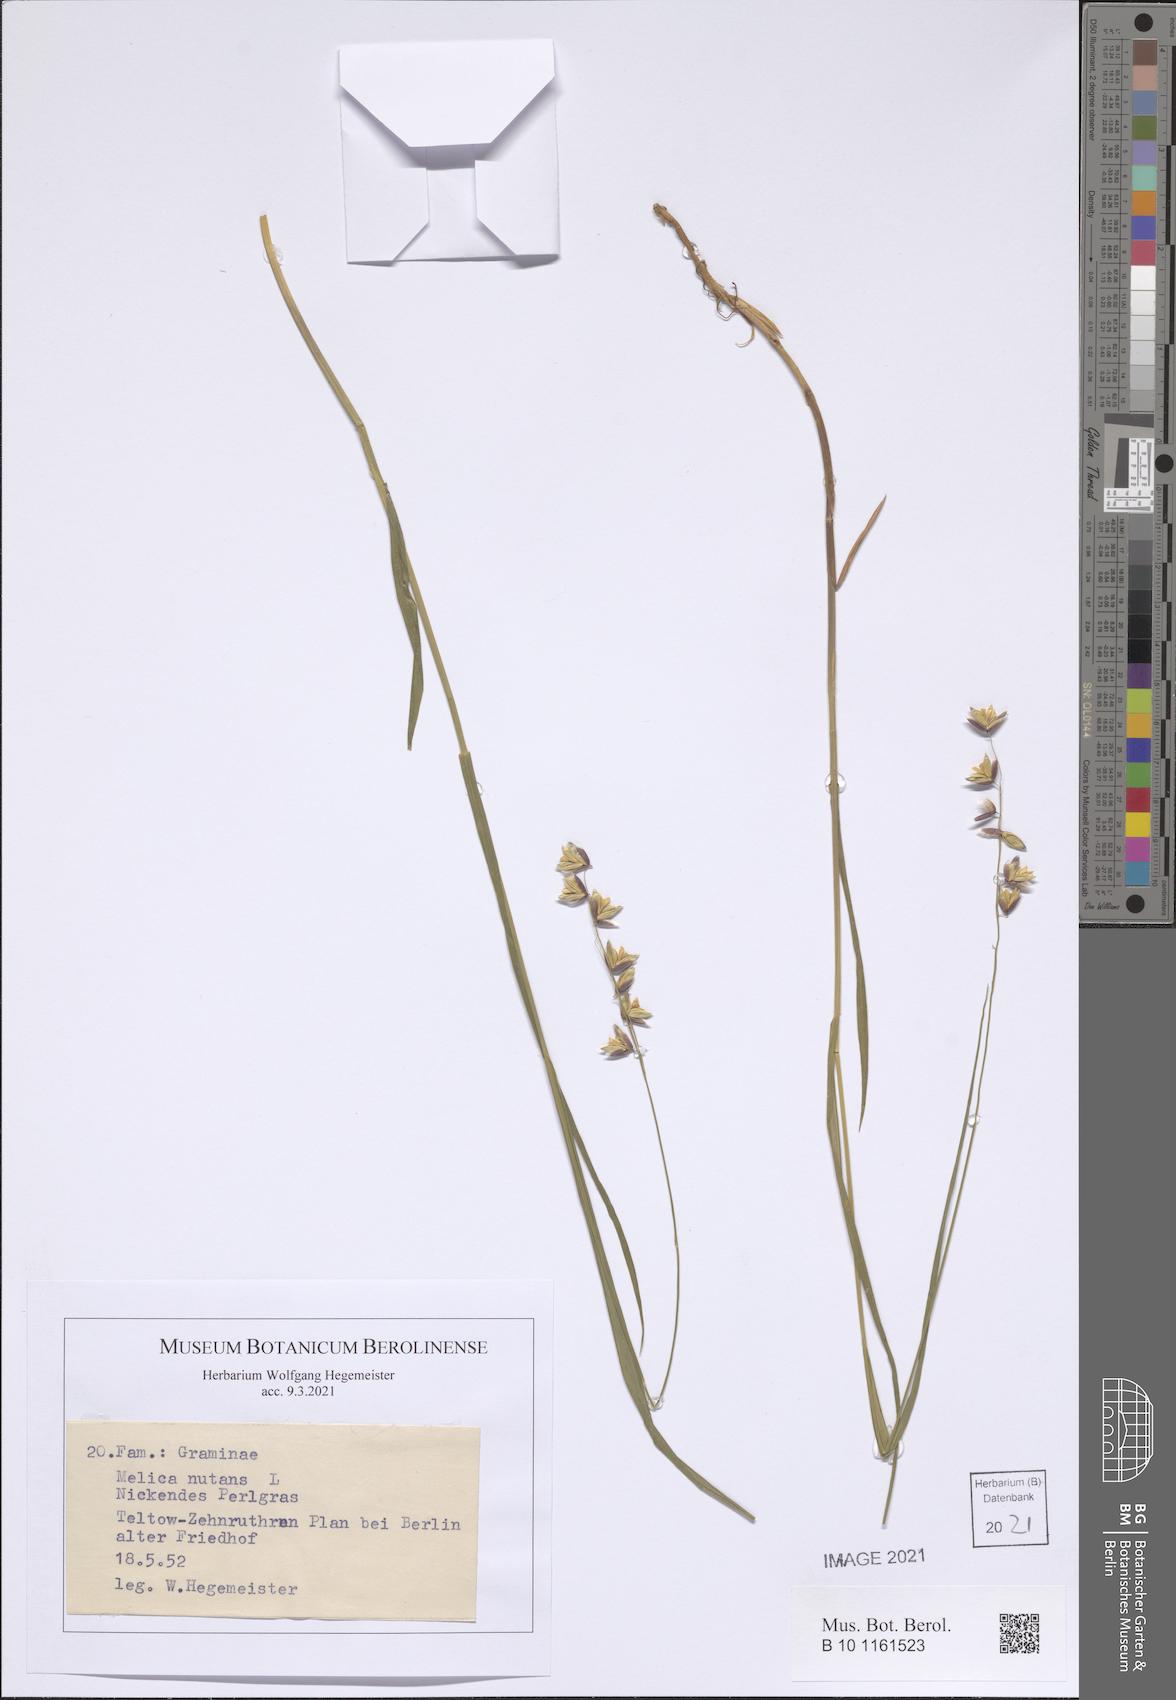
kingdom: Plantae
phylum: Tracheophyta
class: Liliopsida
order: Poales
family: Poaceae
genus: Melica
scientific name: Melica nutans
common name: Mountain melick
